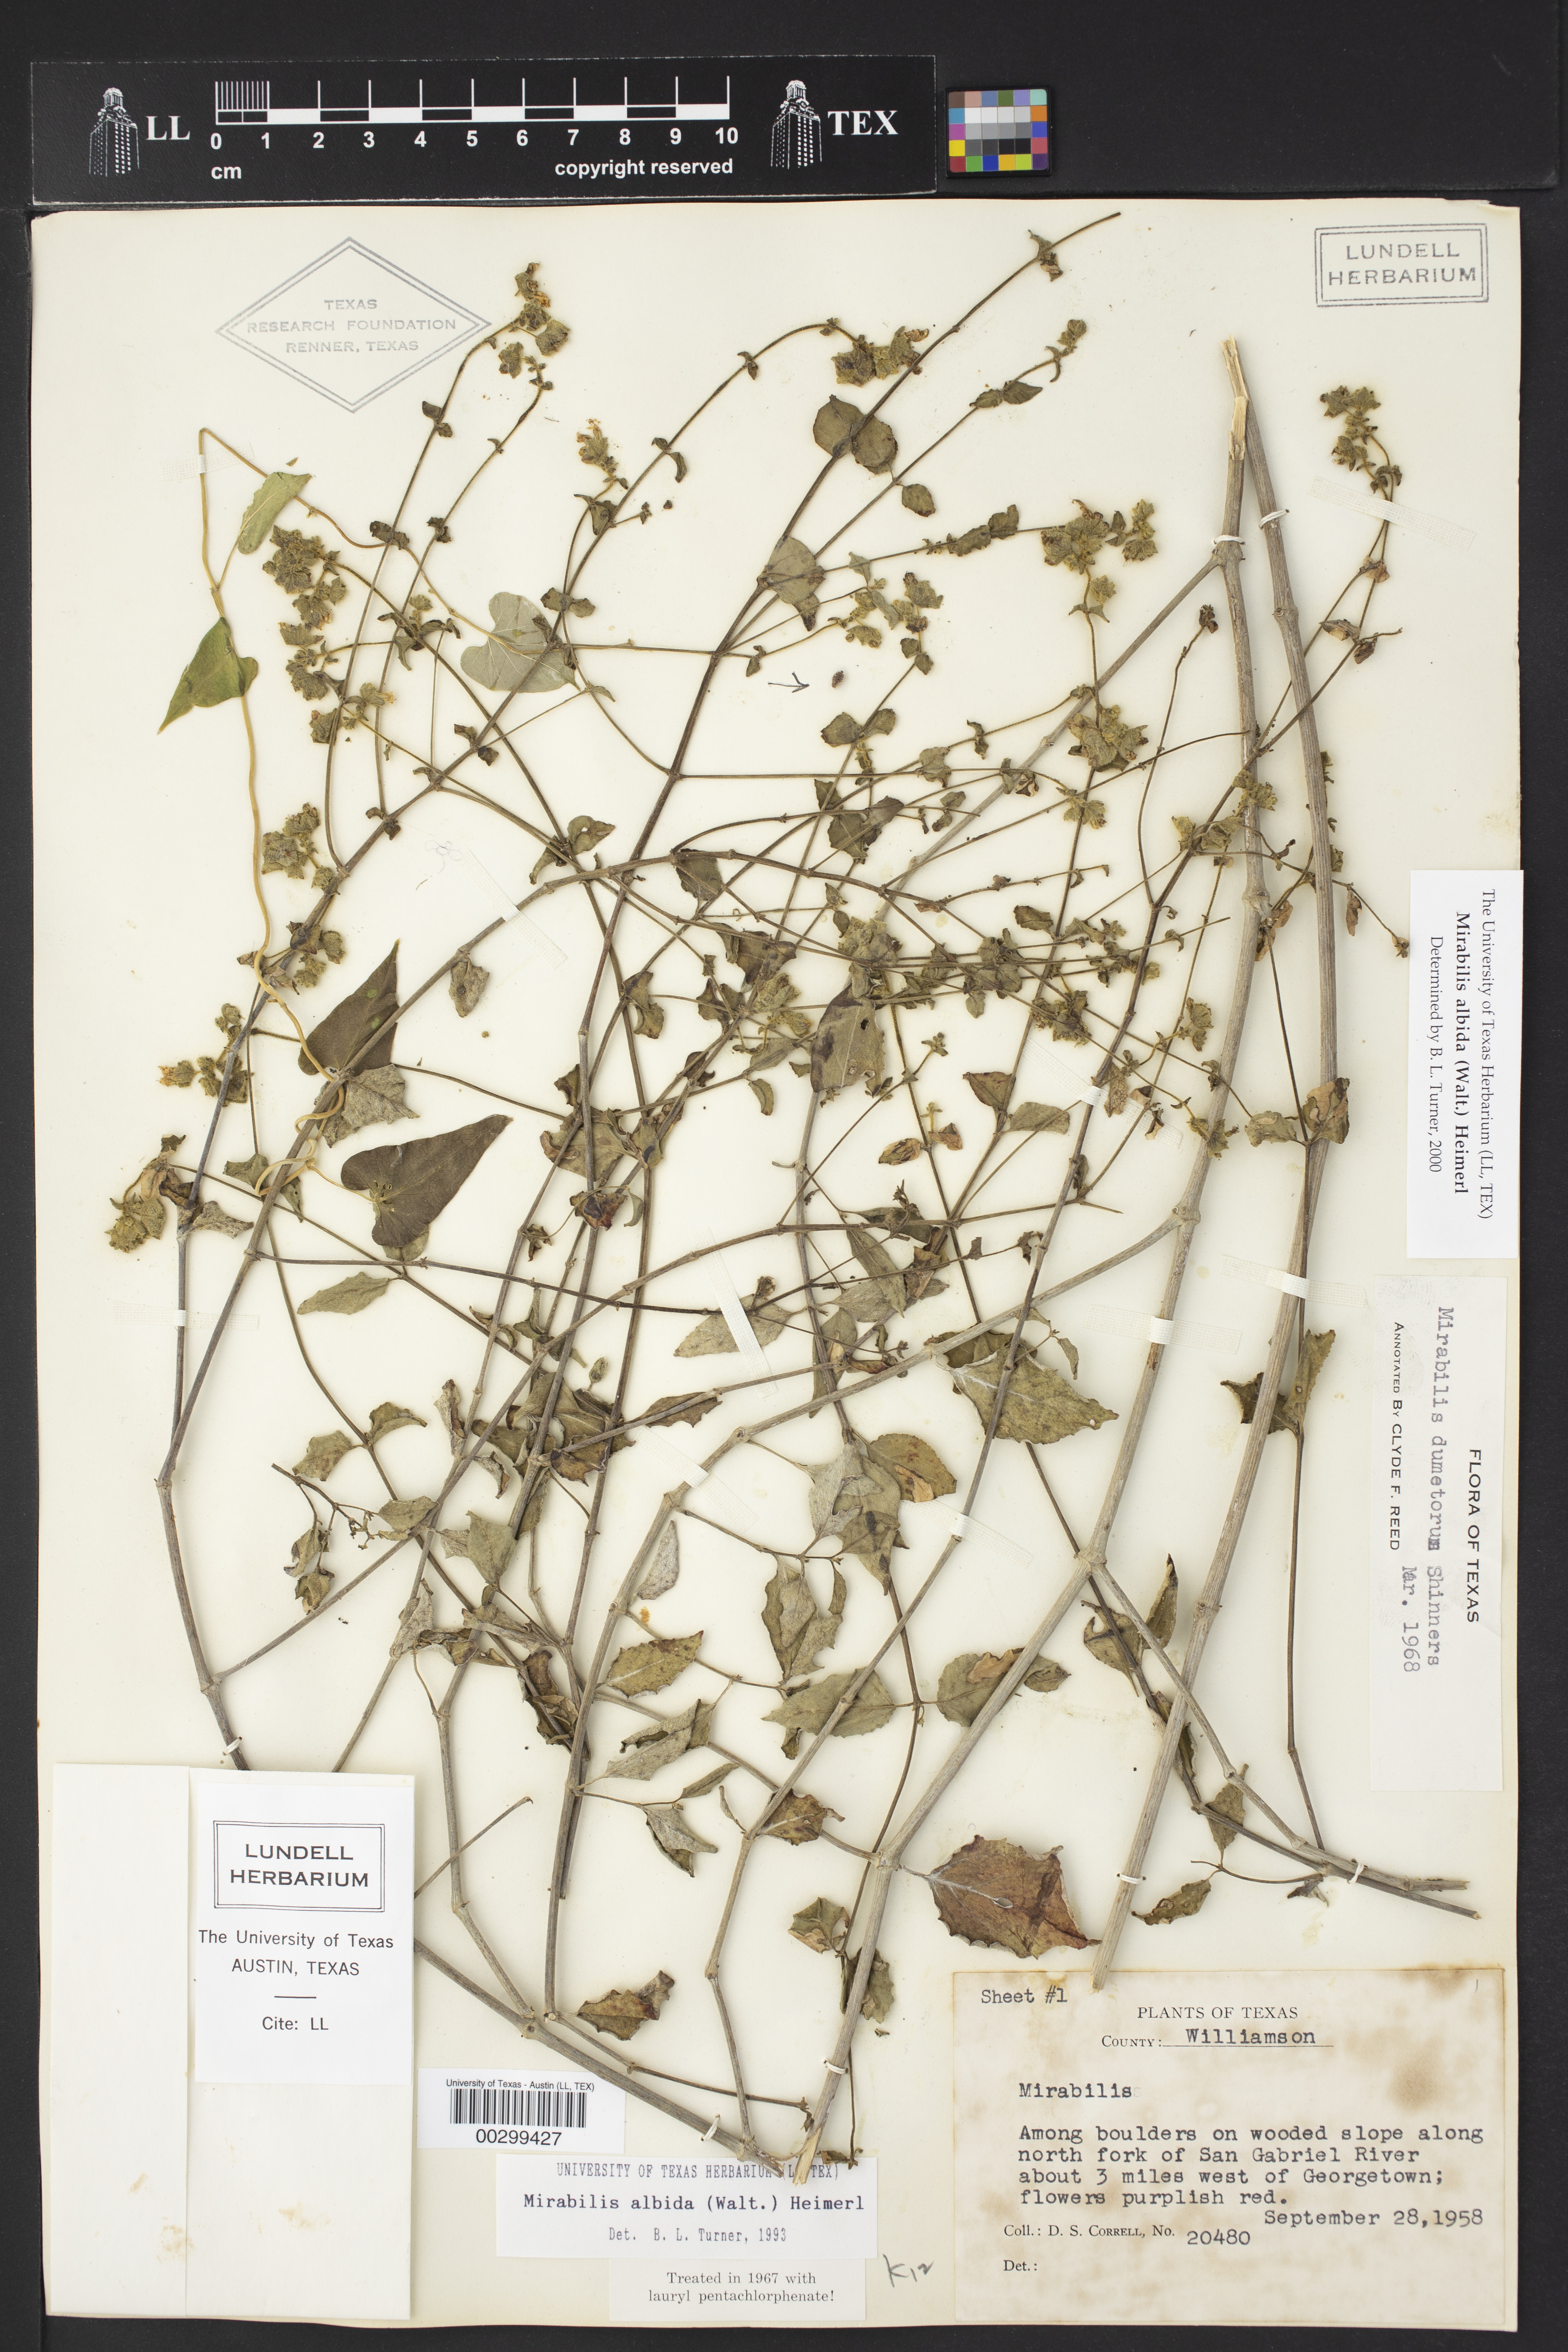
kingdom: Plantae
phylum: Tracheophyta
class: Magnoliopsida
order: Caryophyllales
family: Nyctaginaceae
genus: Mirabilis
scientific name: Mirabilis albida
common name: Hairy four-o'clock
